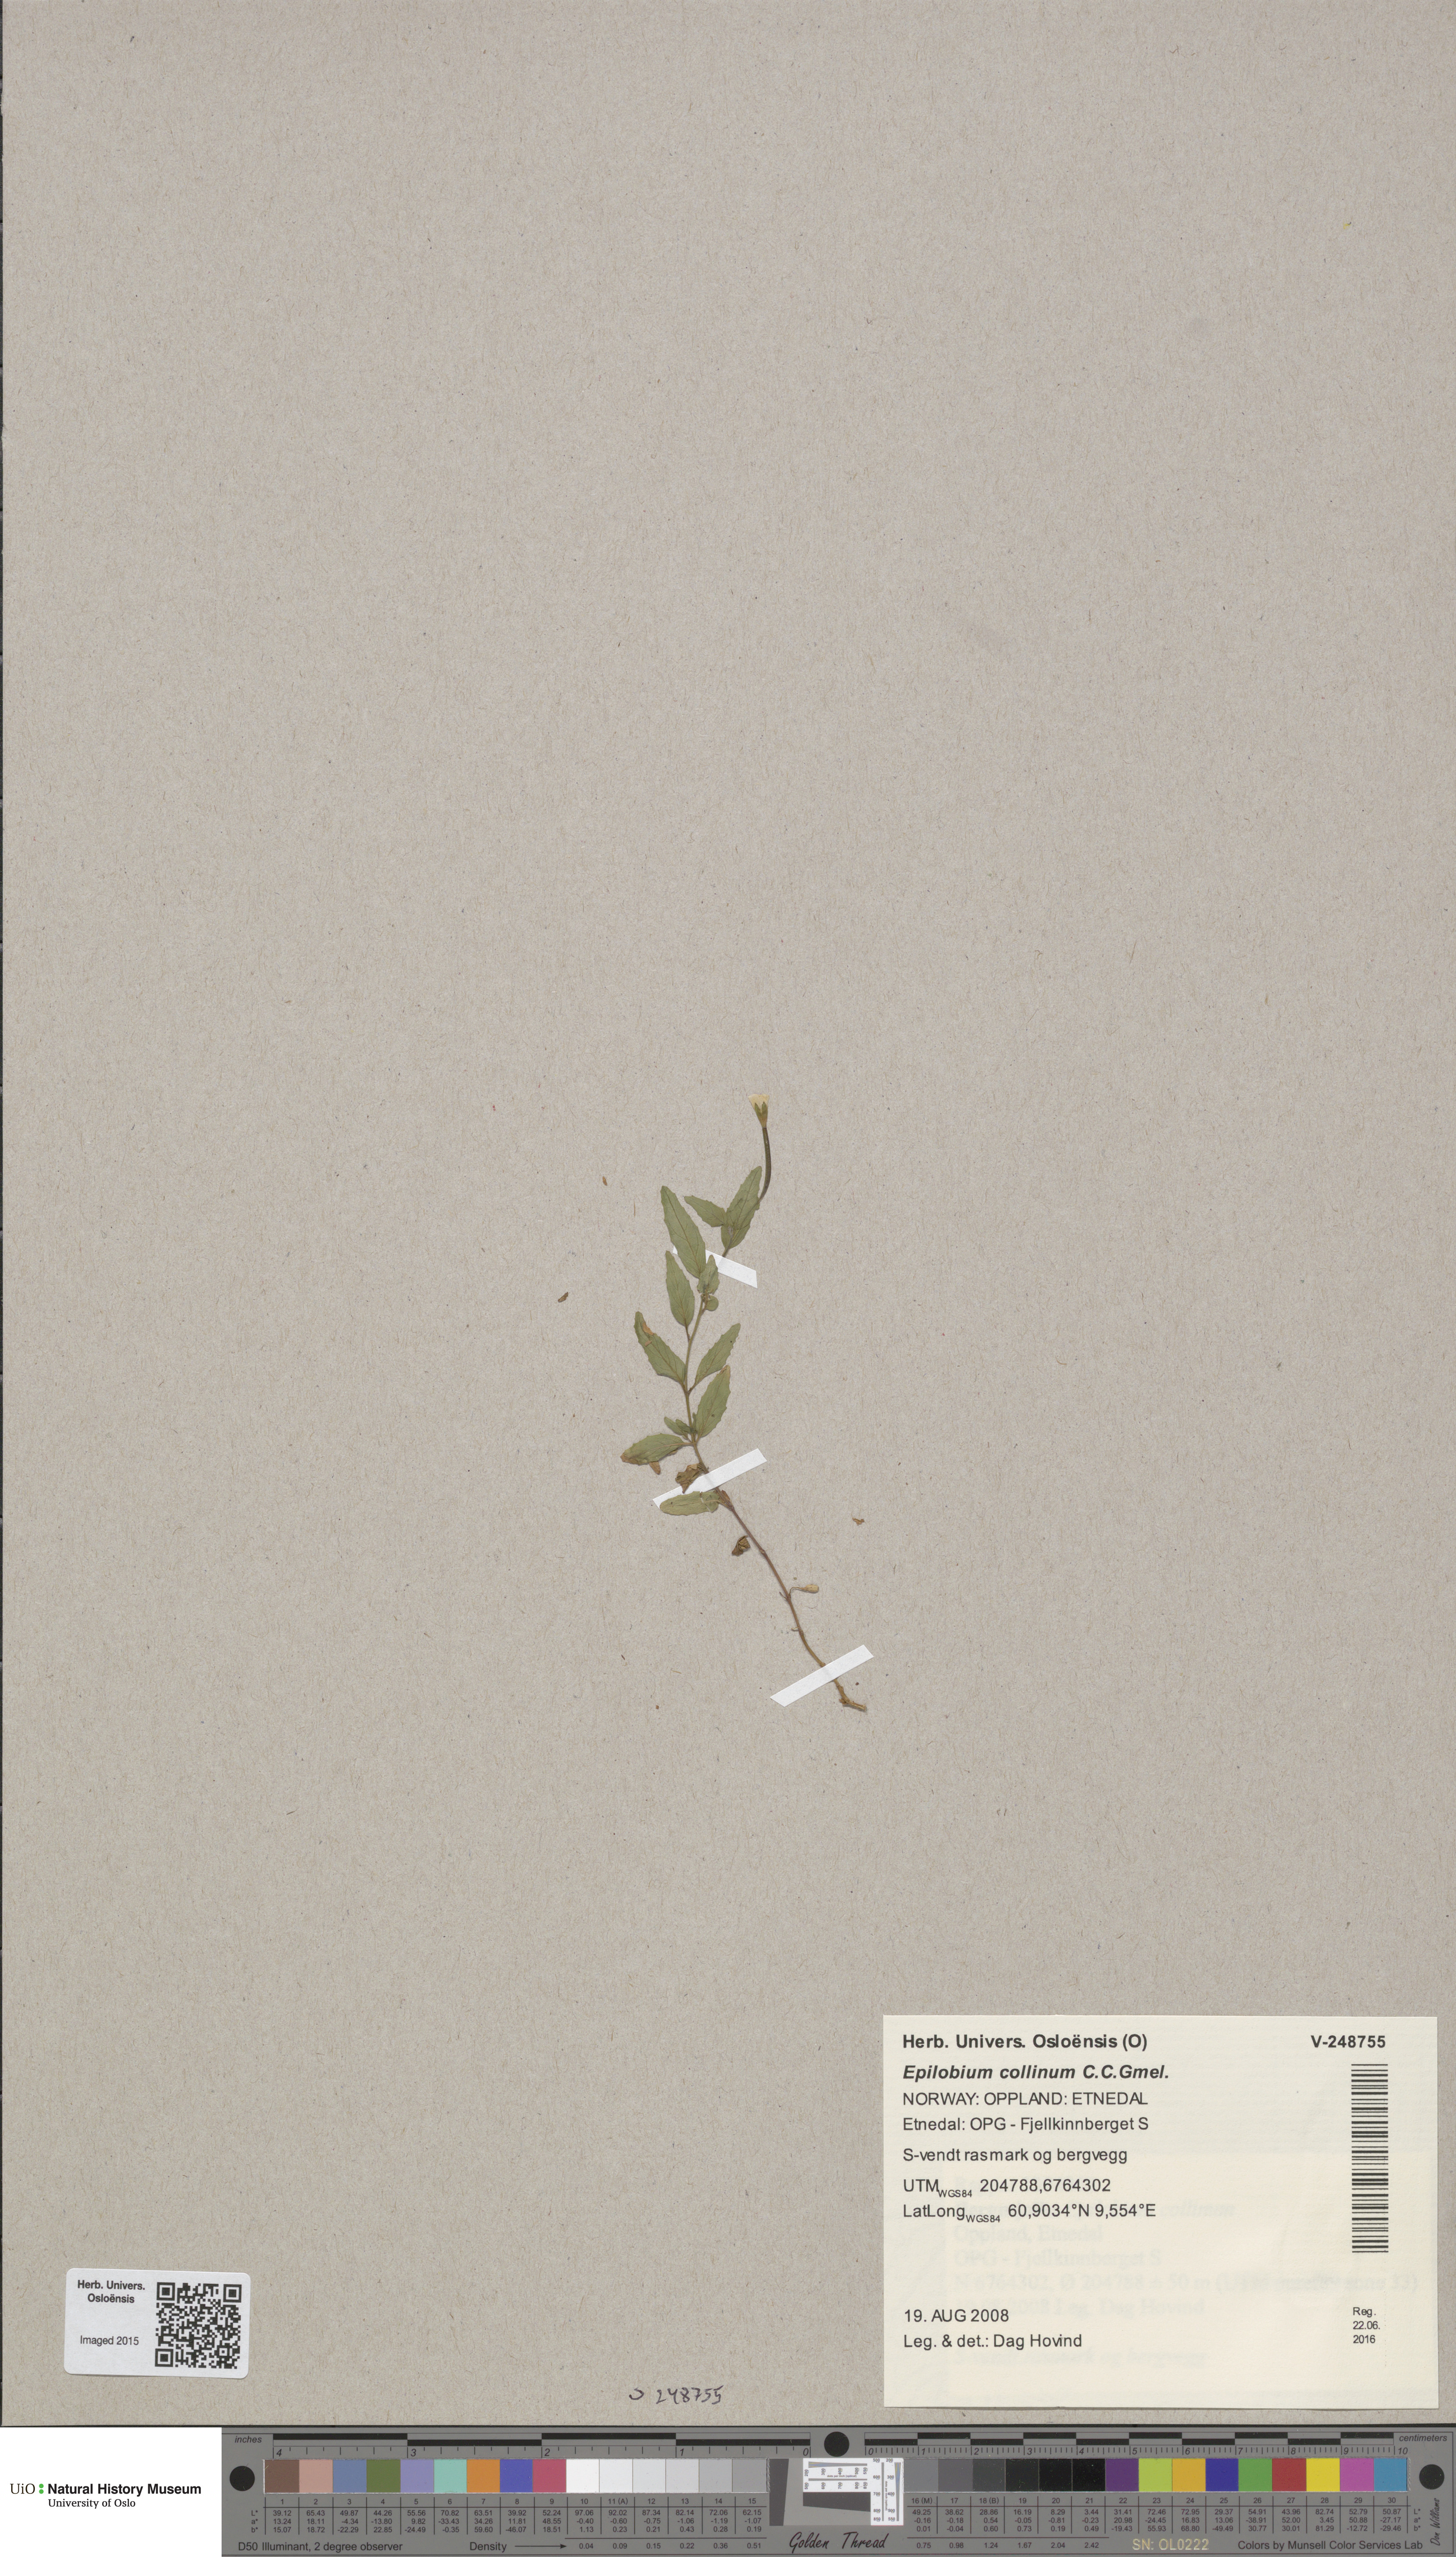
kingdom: Plantae
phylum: Tracheophyta
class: Magnoliopsida
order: Myrtales
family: Onagraceae
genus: Epilobium
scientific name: Epilobium collinum
